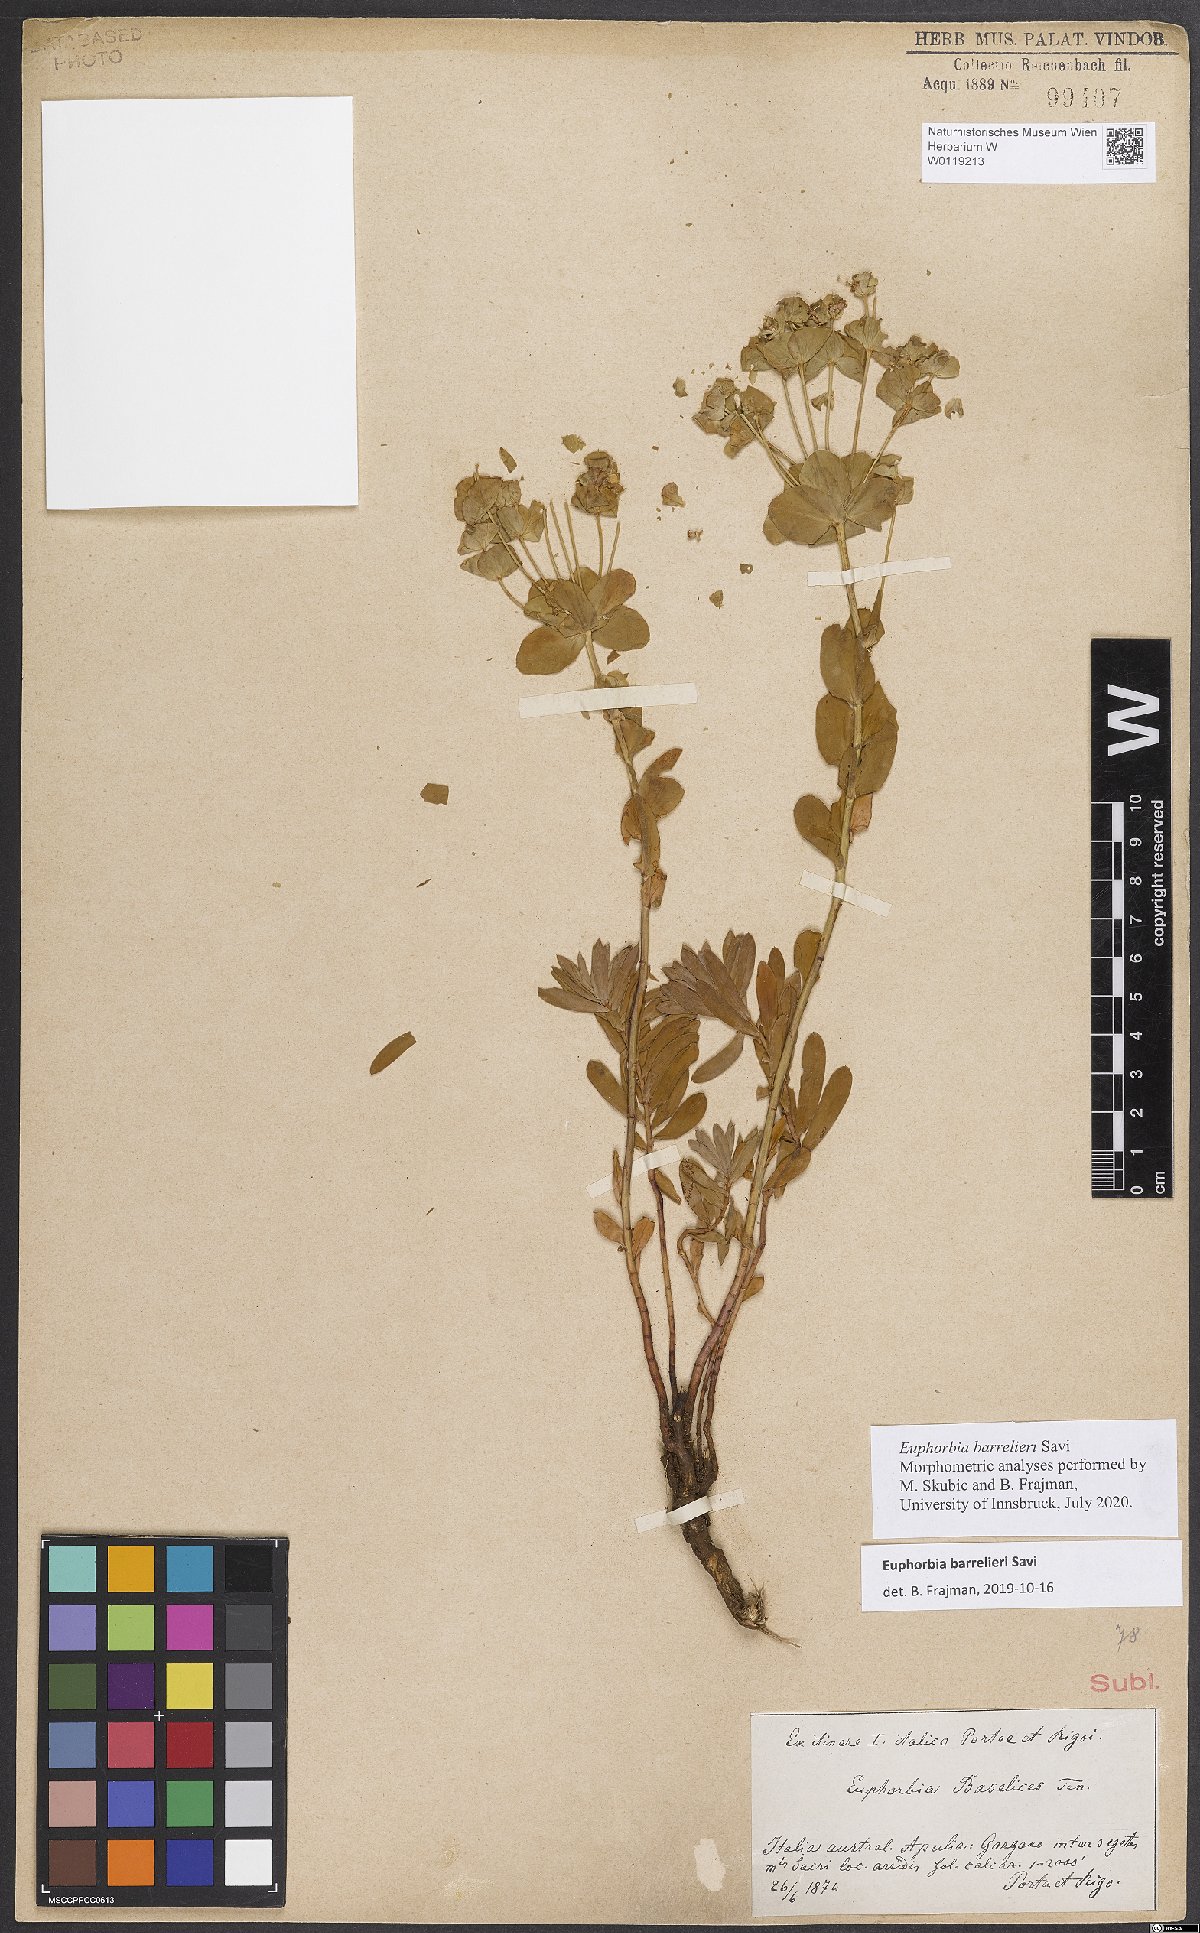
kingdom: Plantae
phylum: Tracheophyta
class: Magnoliopsida
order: Malpighiales
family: Euphorbiaceae
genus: Euphorbia
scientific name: Euphorbia barrelieri
